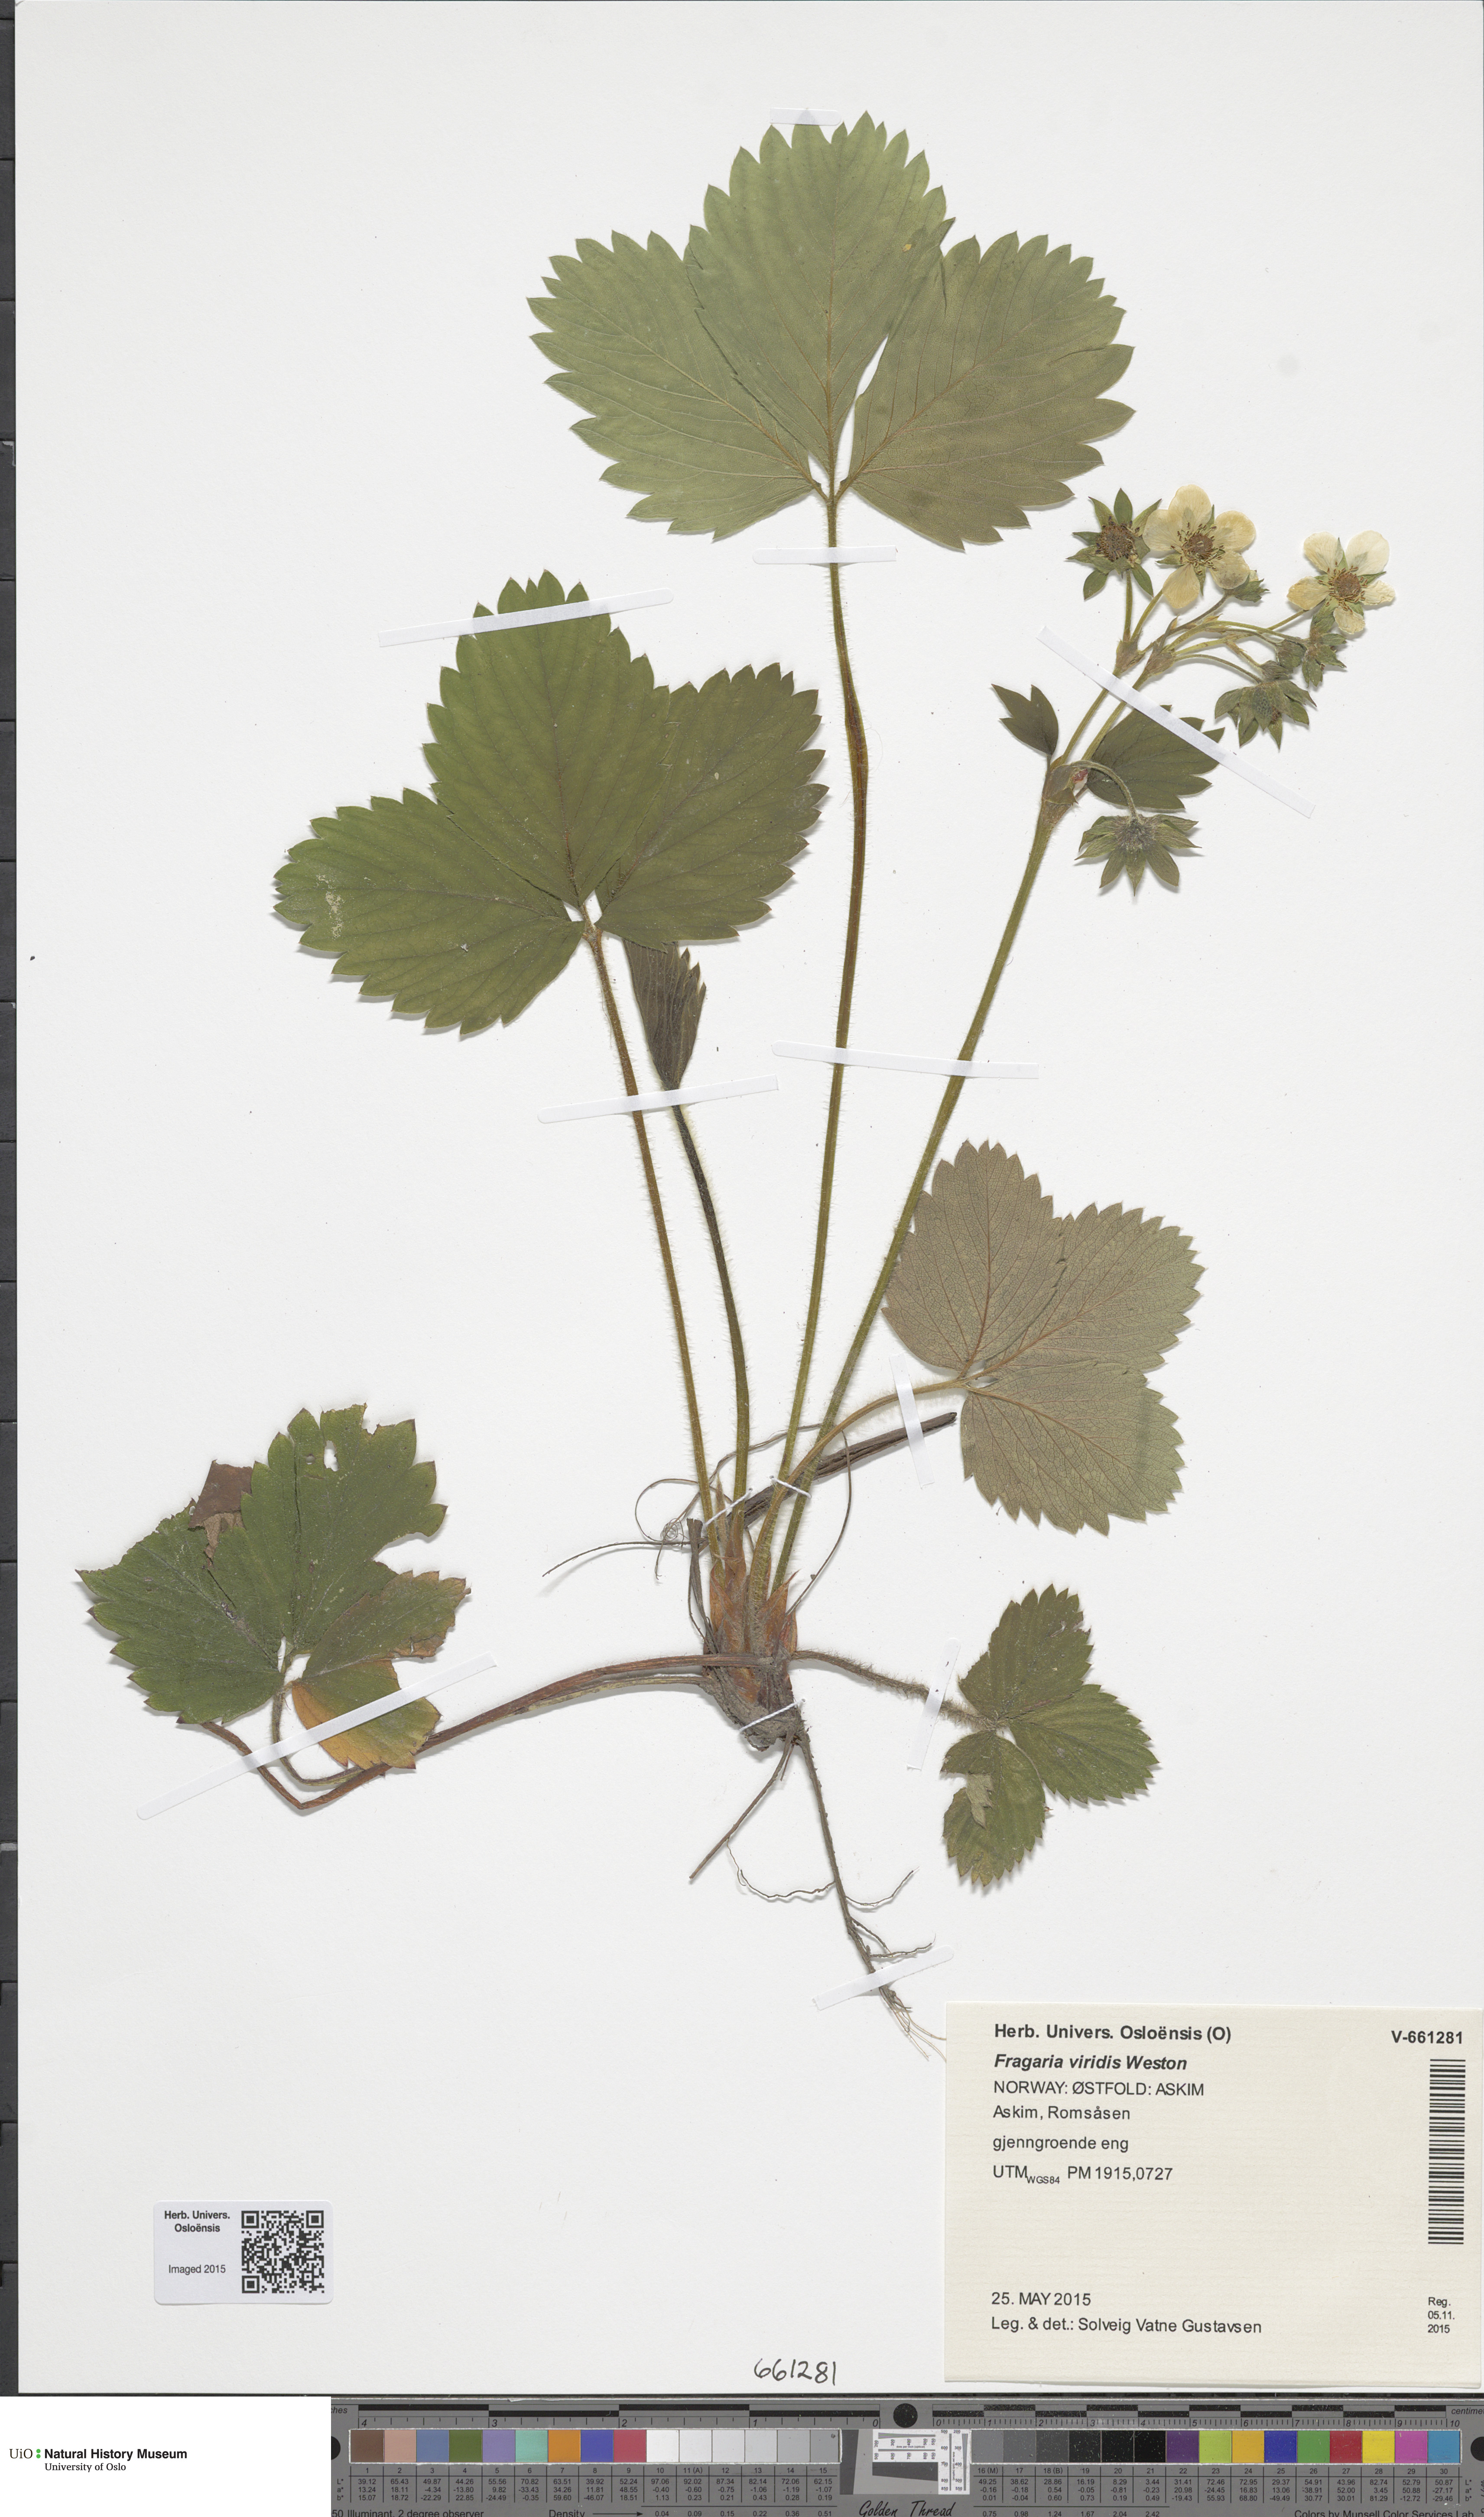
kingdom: Plantae
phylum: Tracheophyta
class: Magnoliopsida
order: Rosales
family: Rosaceae
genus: Fragaria
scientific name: Fragaria ananassa
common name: Garden strawberry
